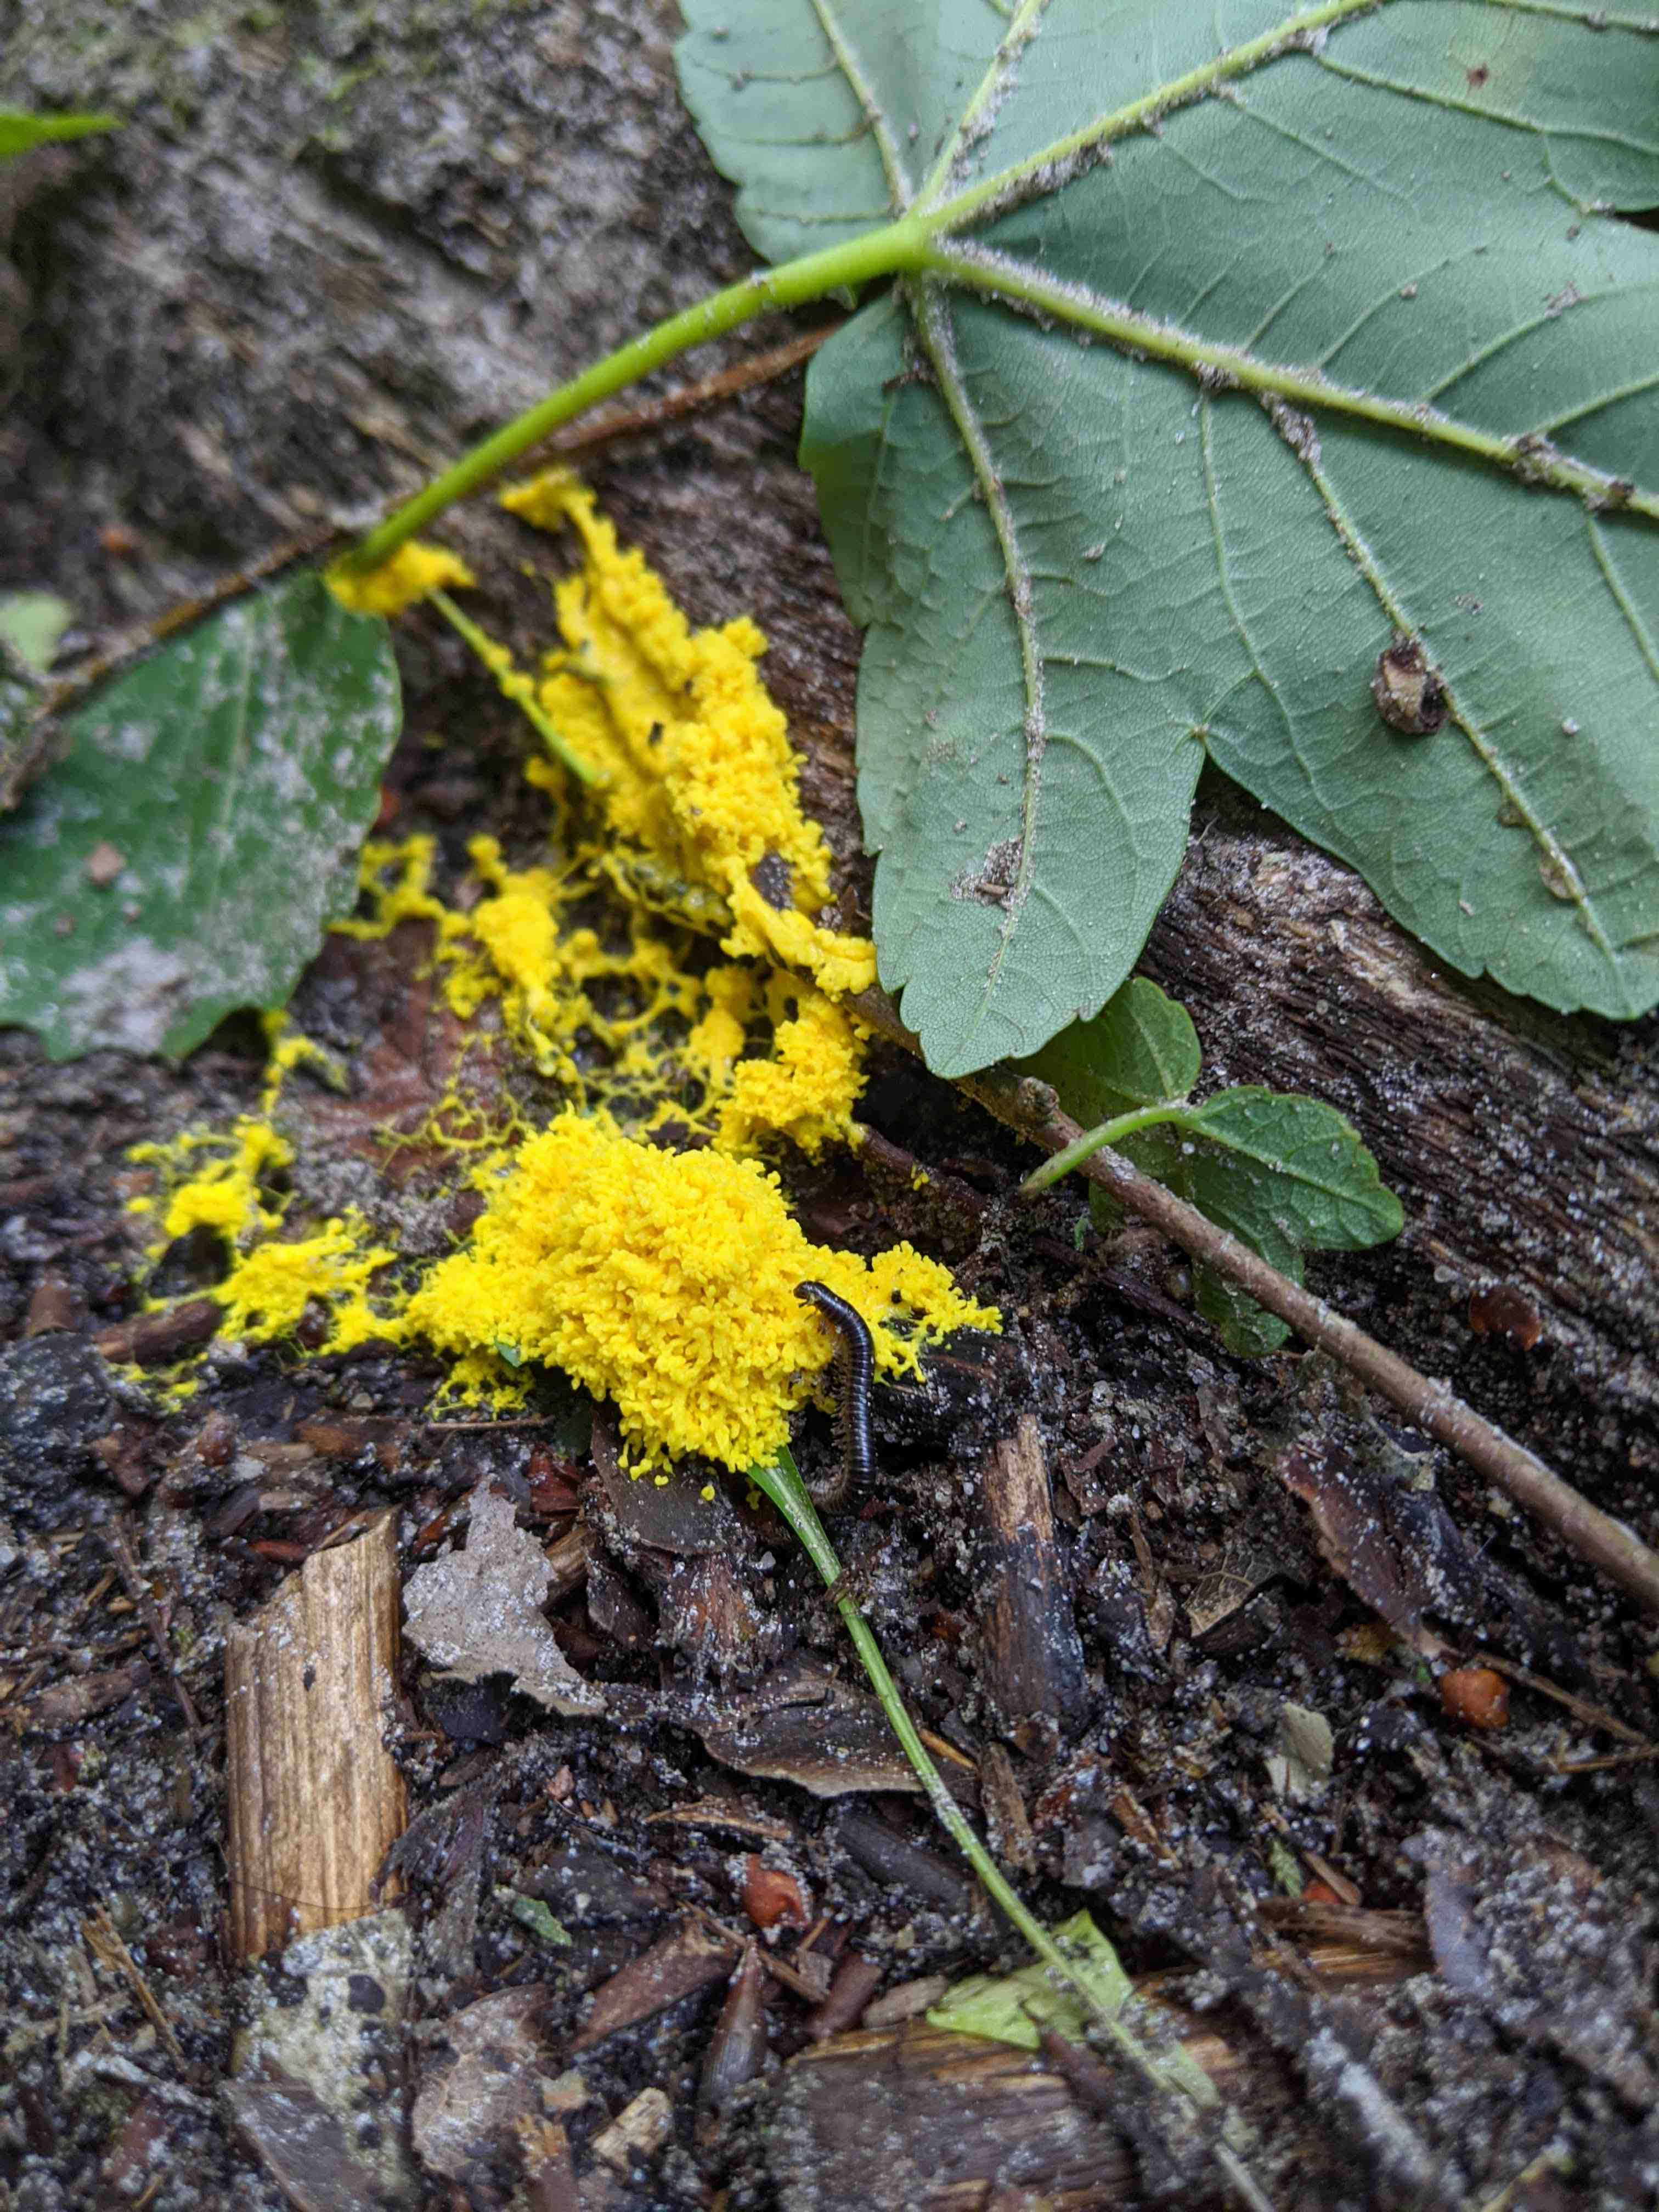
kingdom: Protozoa
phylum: Mycetozoa
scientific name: Mycetozoa
